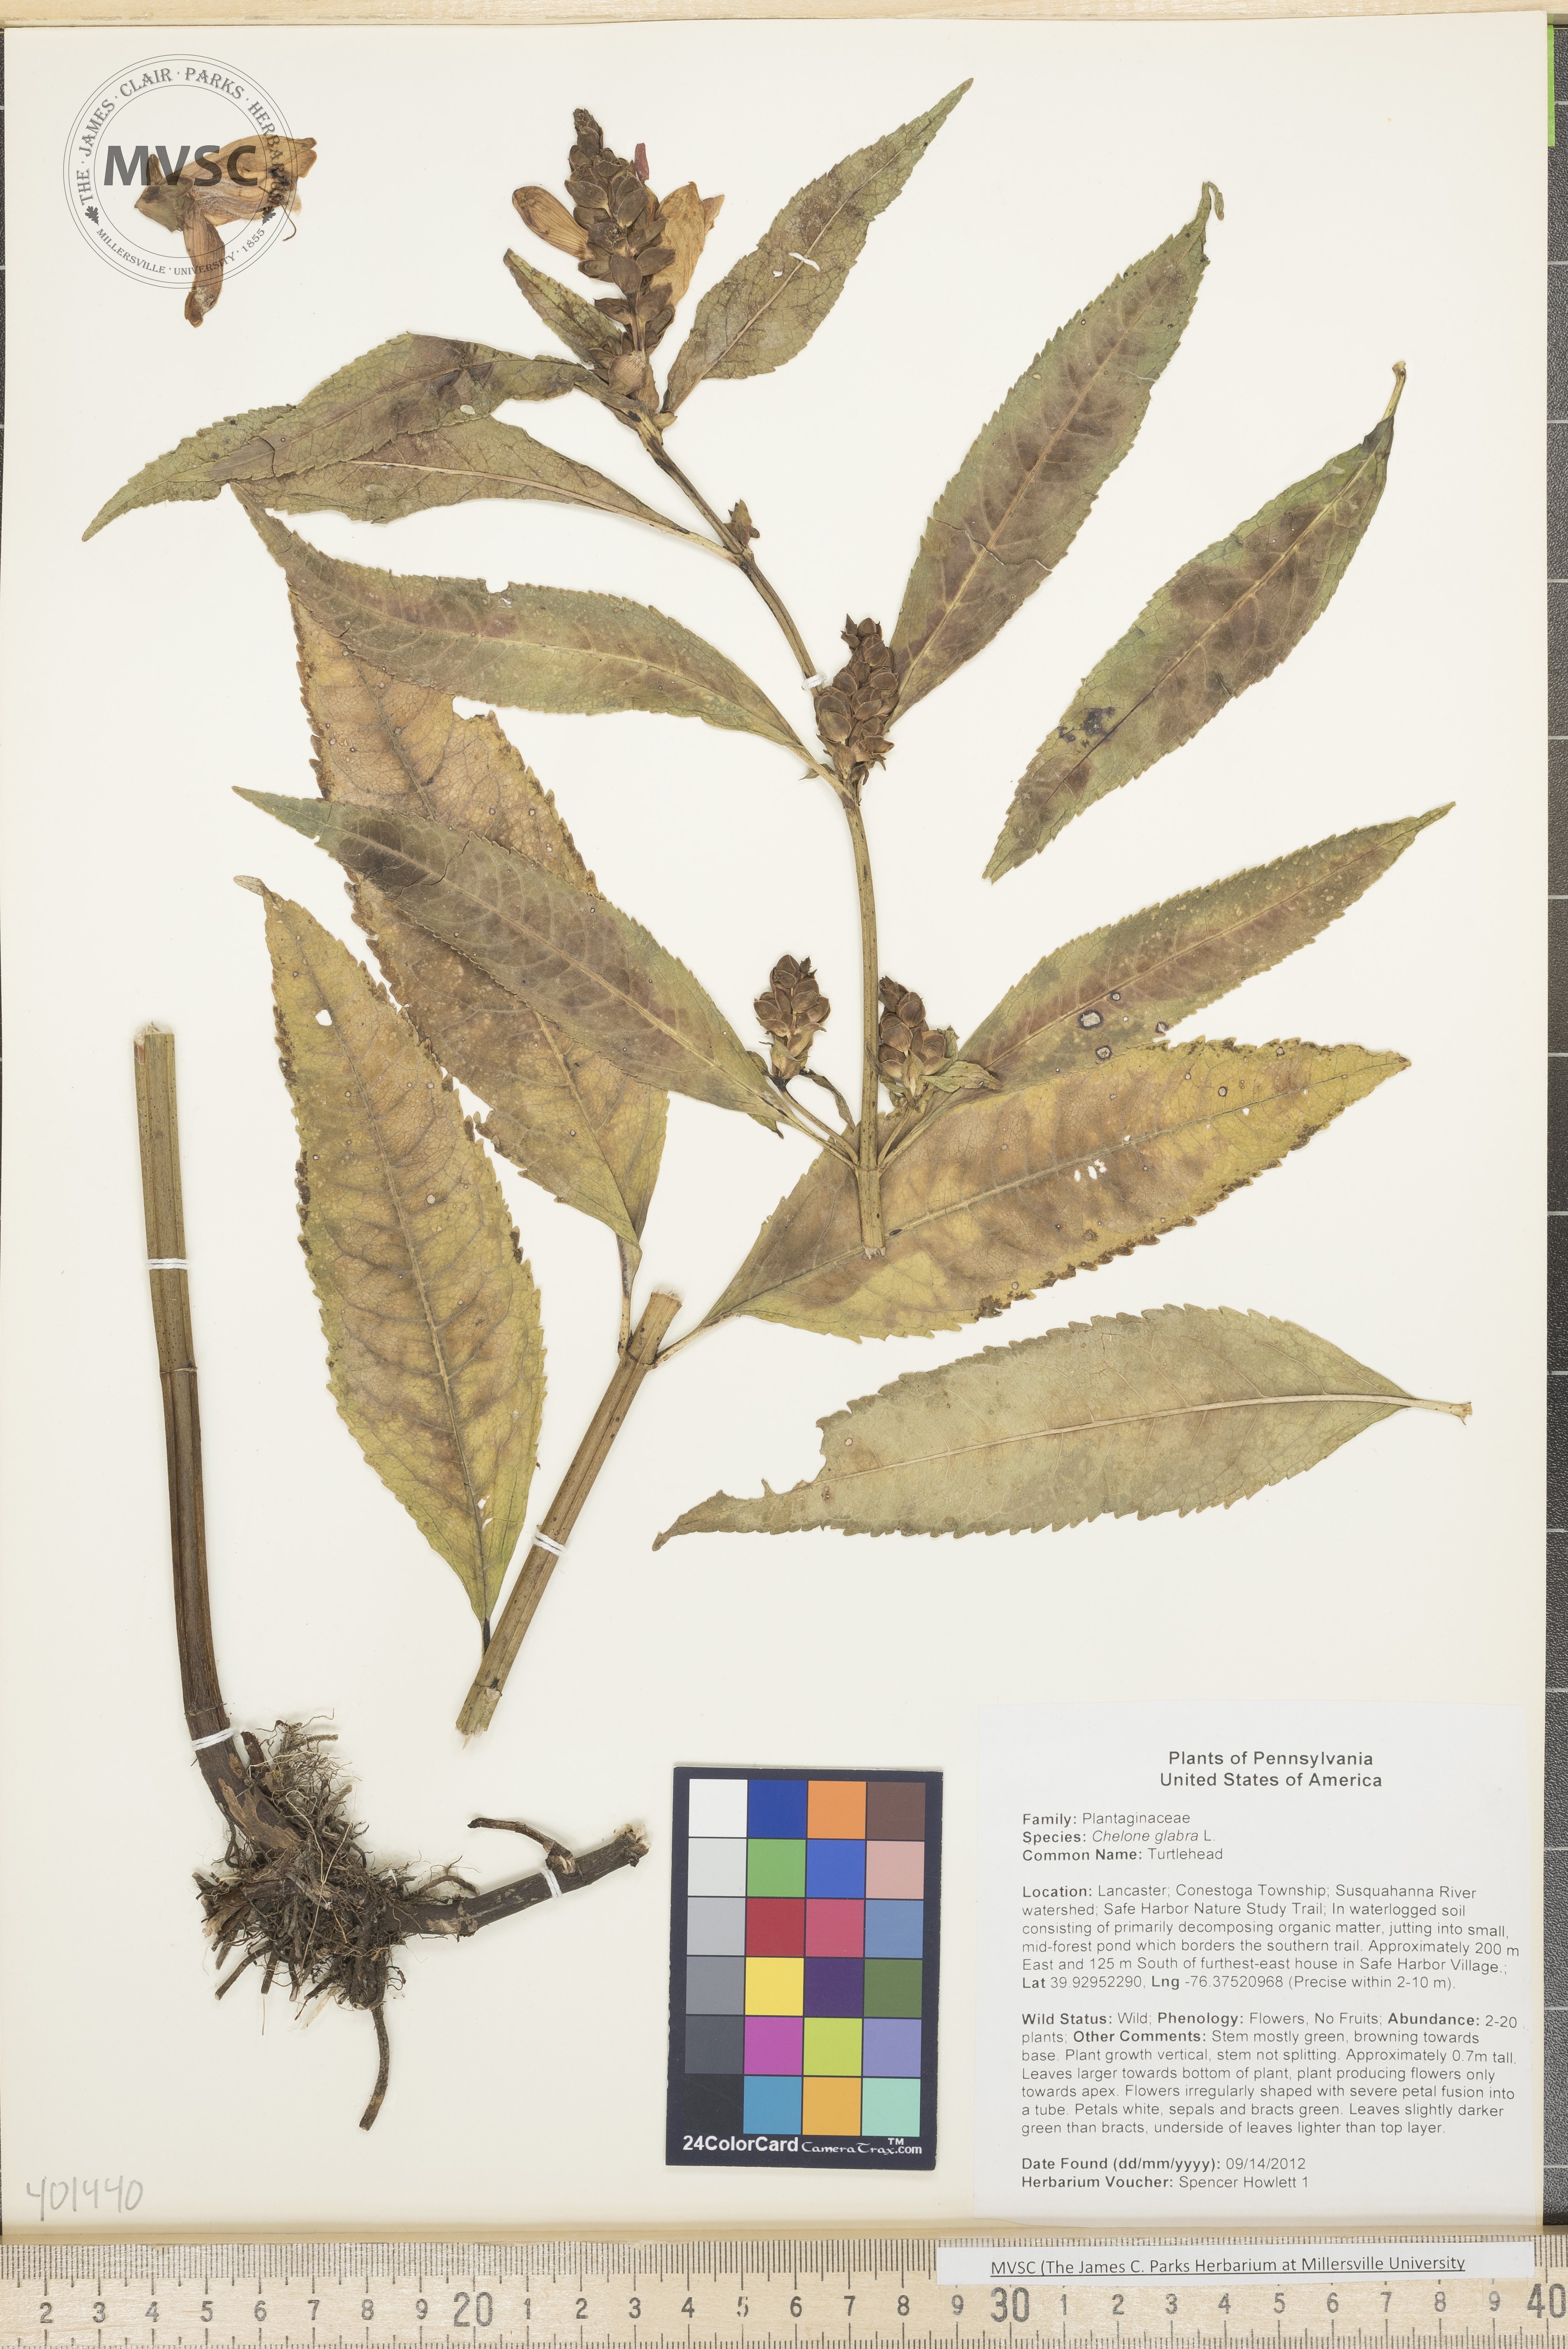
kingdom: Plantae
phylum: Tracheophyta
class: Magnoliopsida
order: Lamiales
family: Plantaginaceae
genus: Chelone
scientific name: Chelone glabra
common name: Turtlehead
